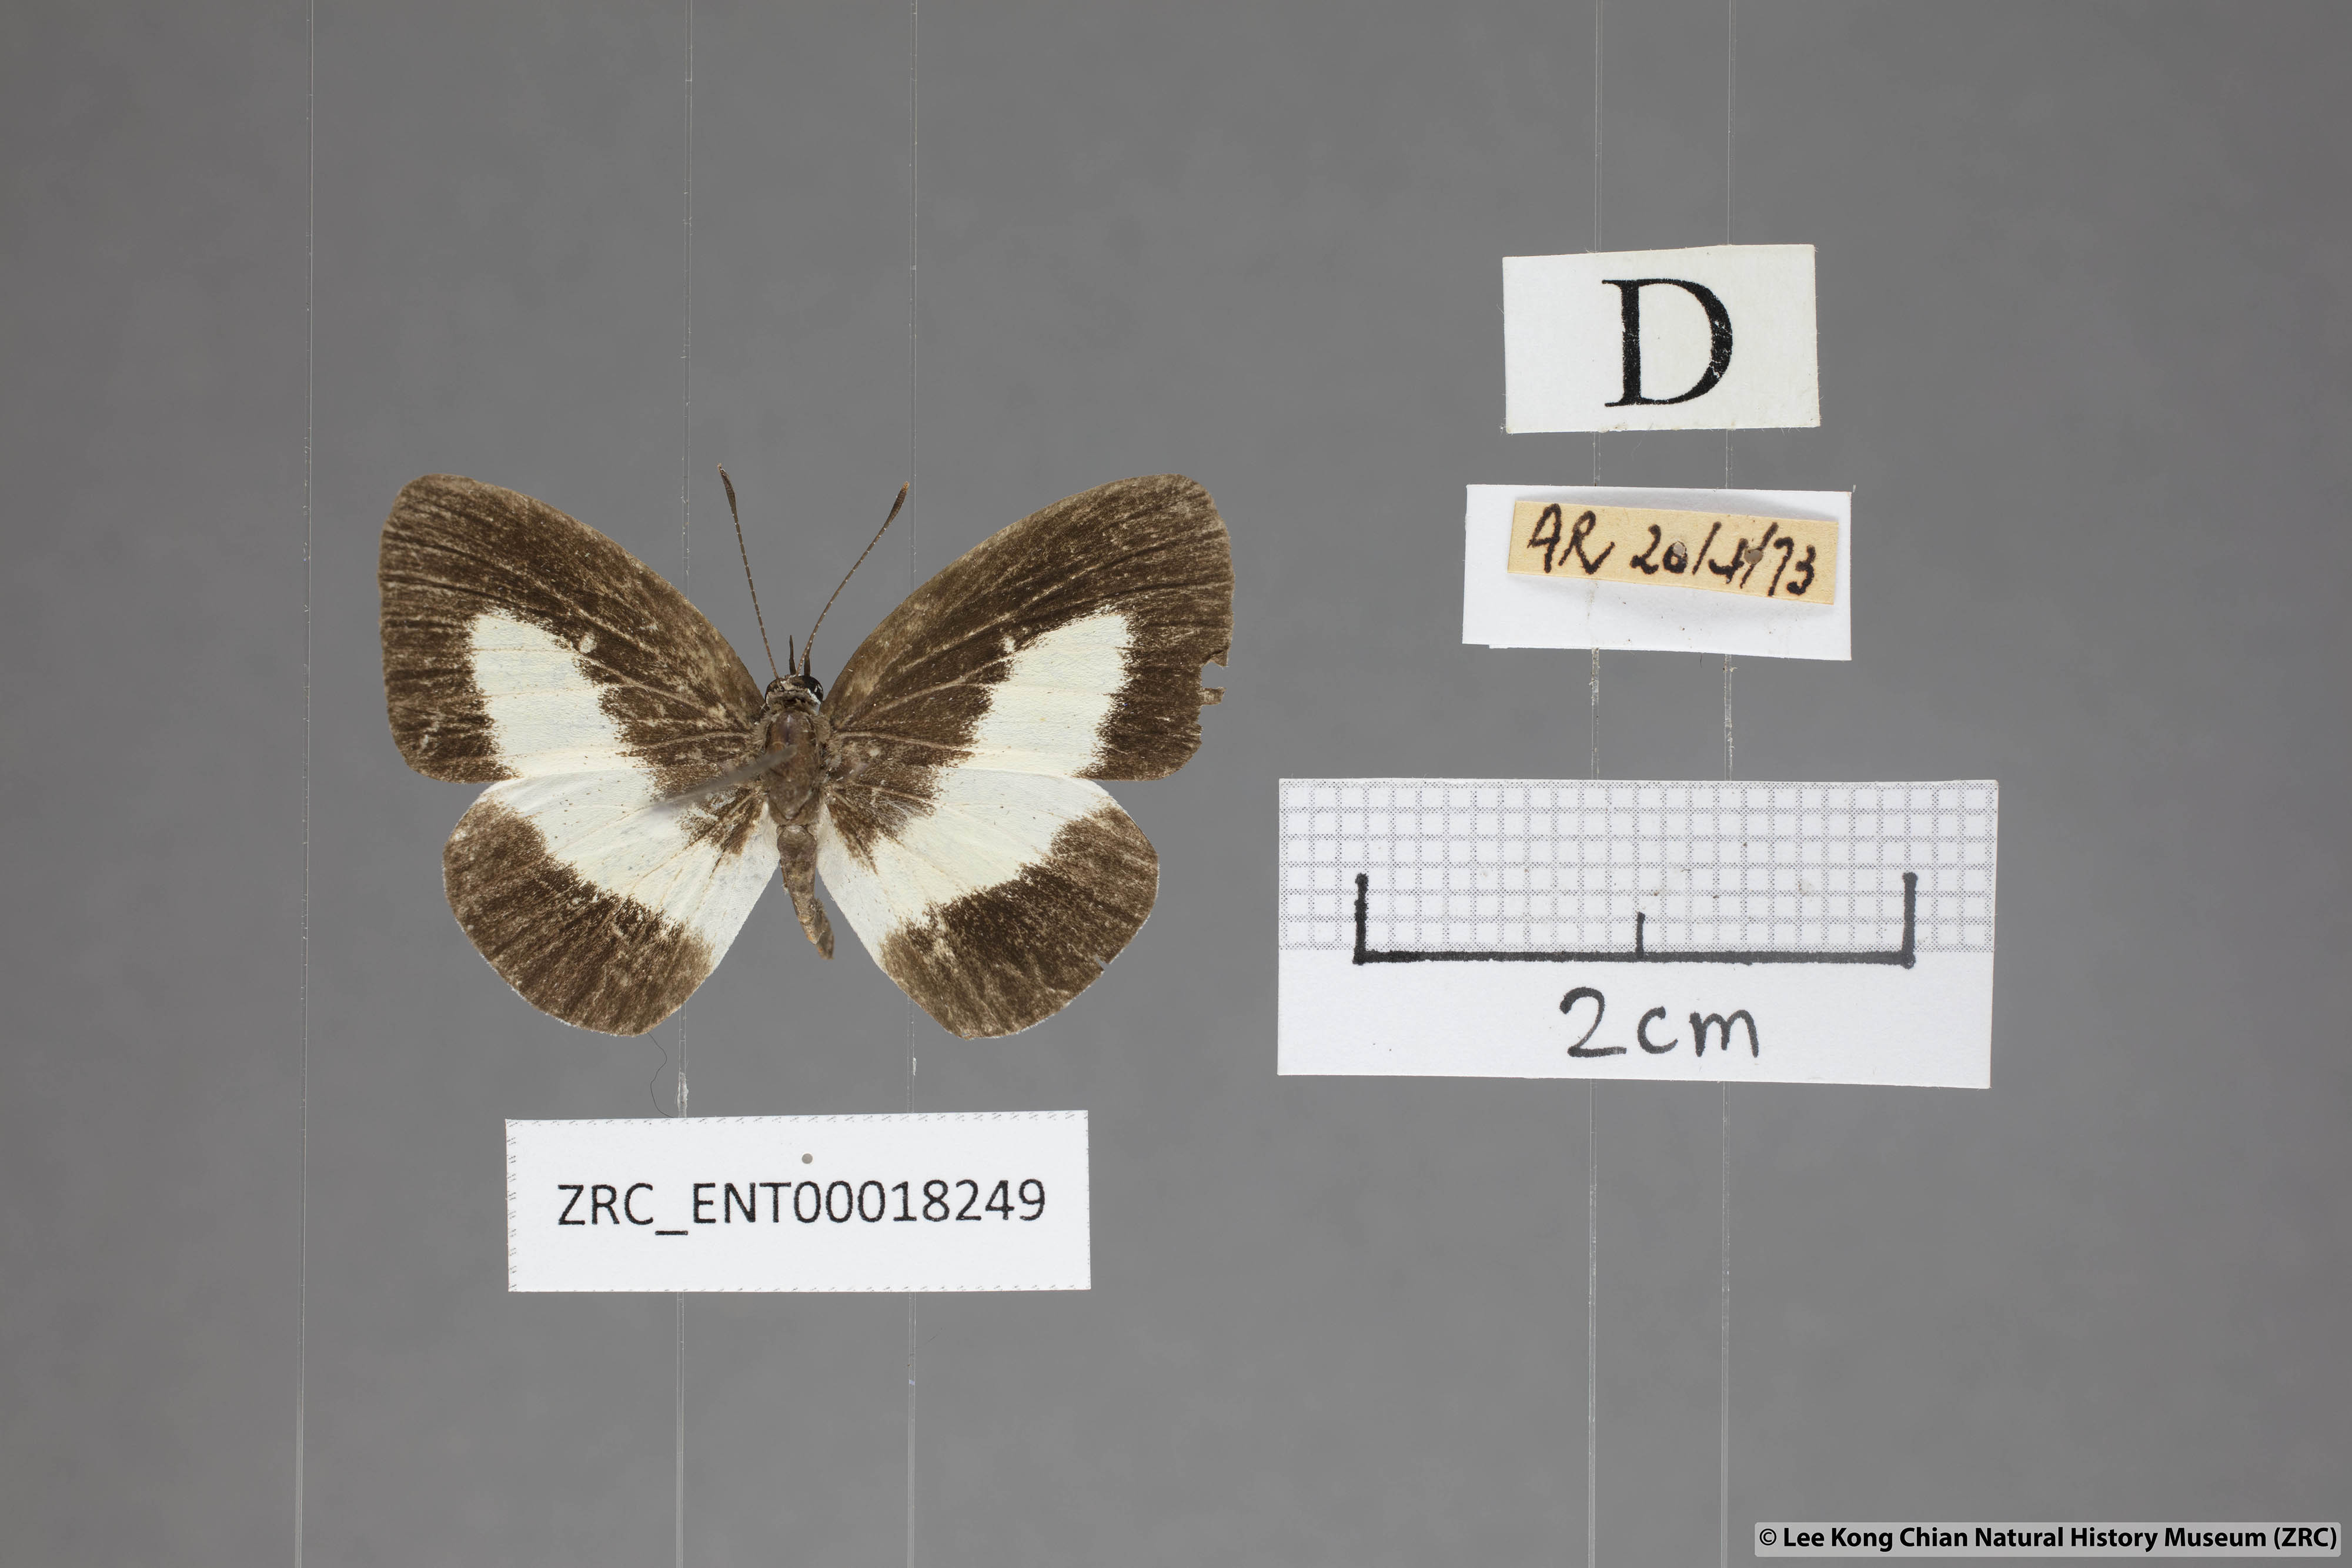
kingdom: Animalia
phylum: Arthropoda
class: Insecta
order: Lepidoptera
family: Lycaenidae
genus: Lycaenopsis
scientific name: Lycaenopsis haraldus
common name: Felder's hedge blue
